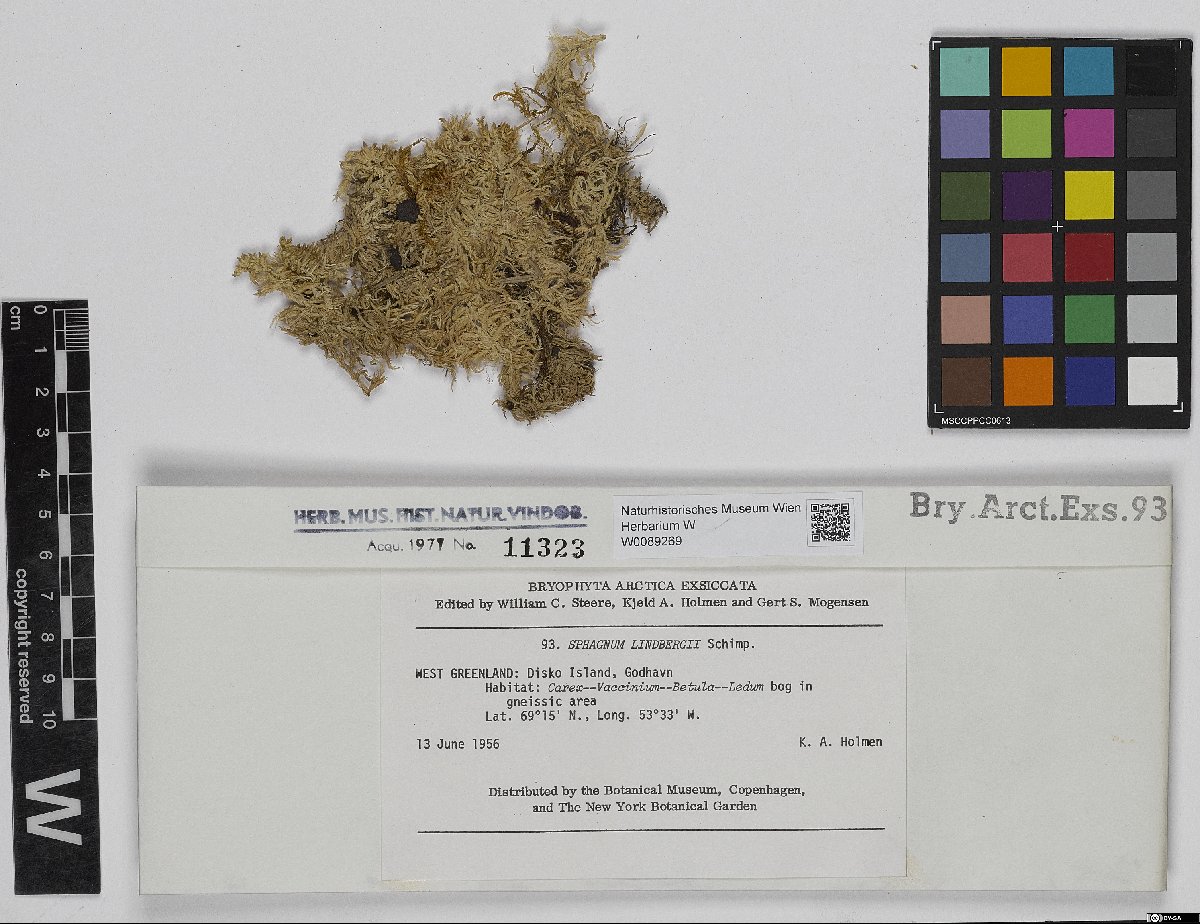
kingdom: Plantae
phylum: Bryophyta
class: Sphagnopsida
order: Sphagnales
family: Sphagnaceae
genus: Sphagnum
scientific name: Sphagnum lindbergii
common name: Lindberg's peat moss
